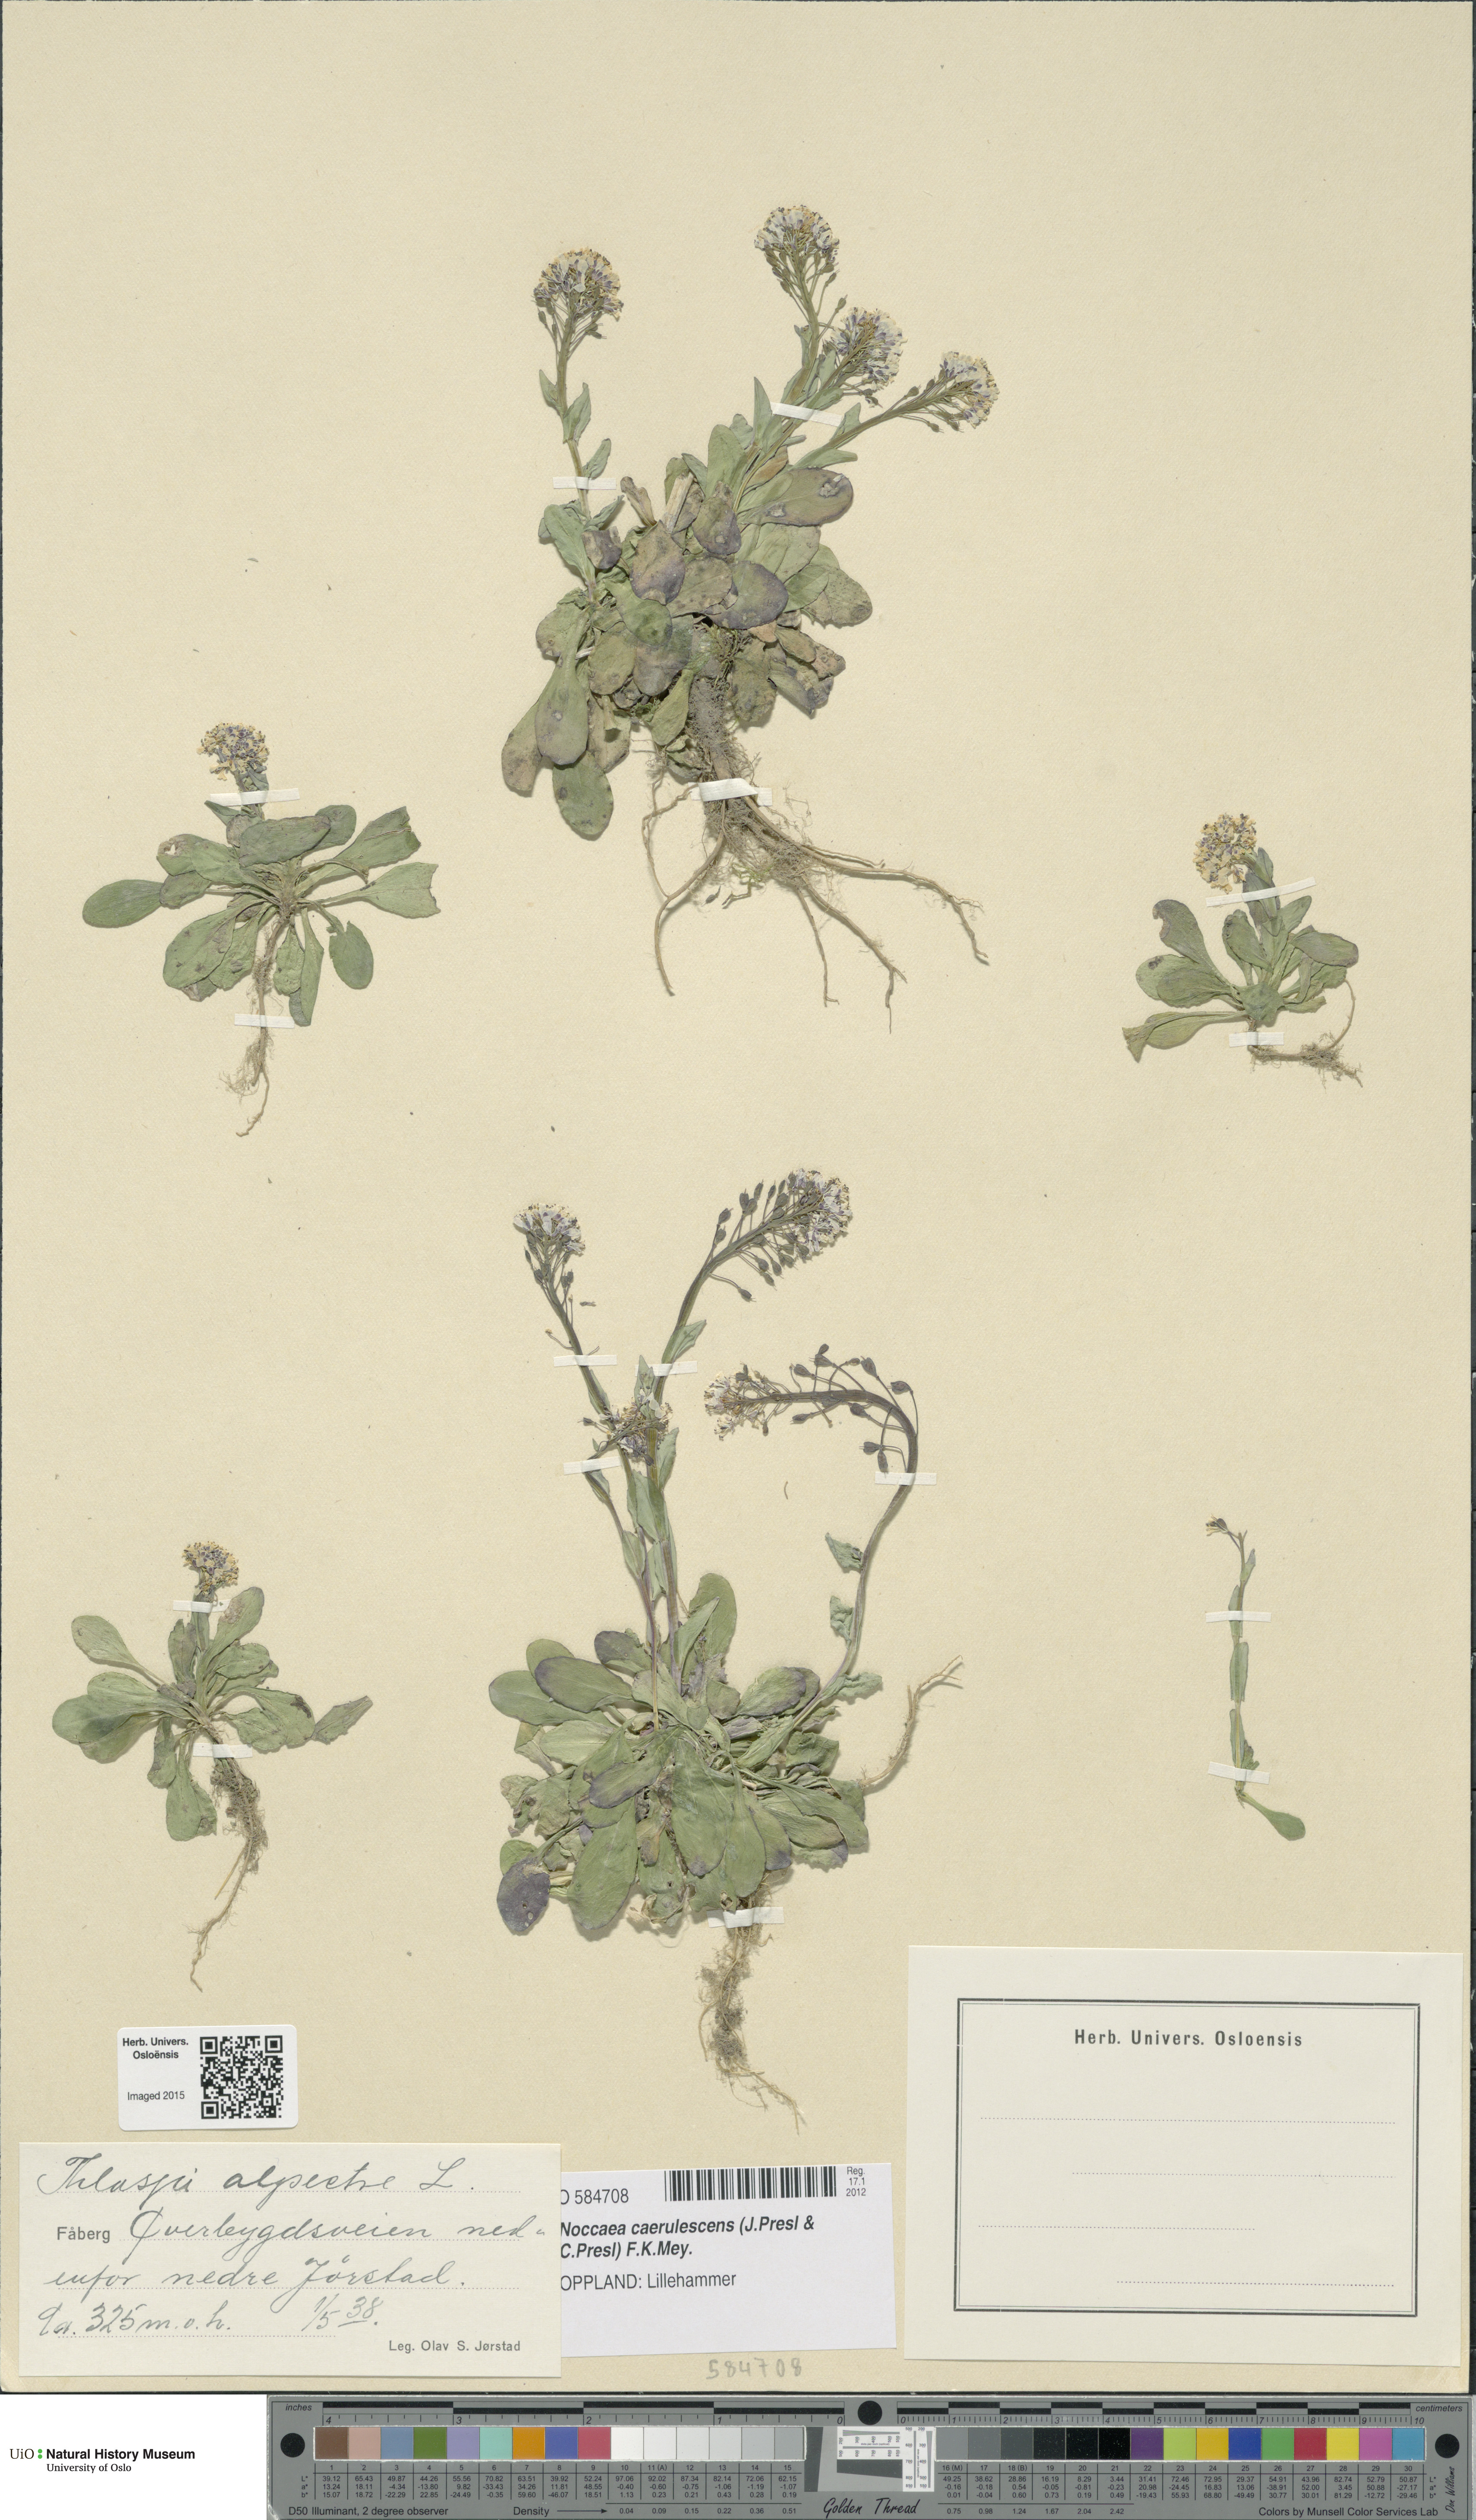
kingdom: Plantae
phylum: Tracheophyta
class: Magnoliopsida
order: Brassicales
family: Brassicaceae
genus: Noccaea
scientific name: Noccaea caerulescens
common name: Alpine pennycress
